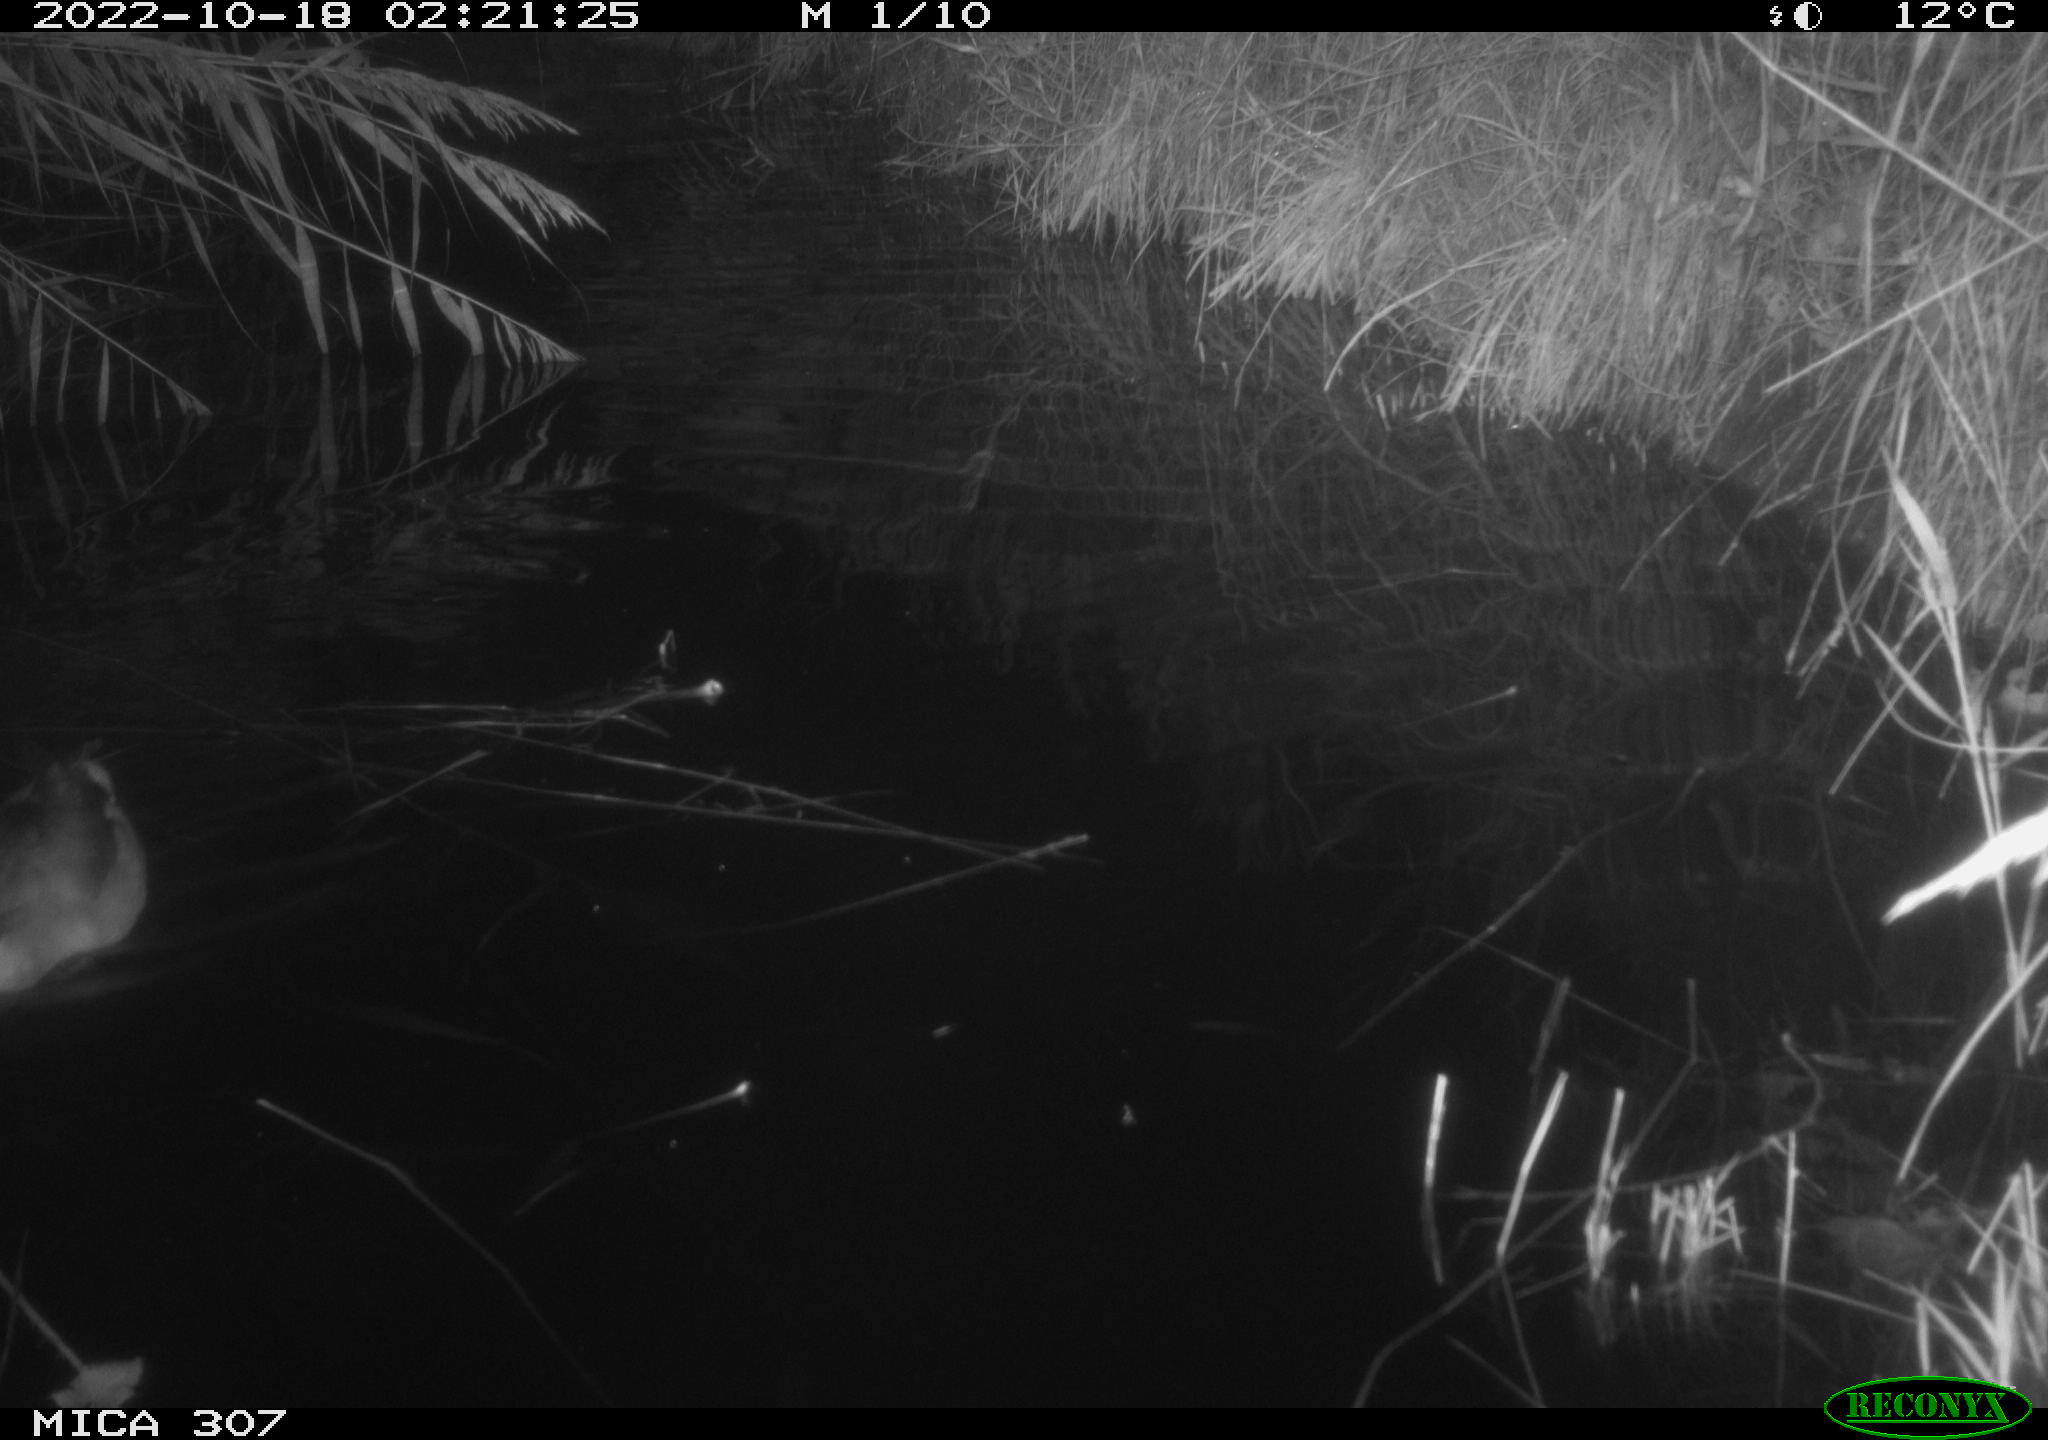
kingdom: Animalia
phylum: Chordata
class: Aves
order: Gruiformes
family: Rallidae
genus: Gallinula
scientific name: Gallinula chloropus
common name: Common moorhen
